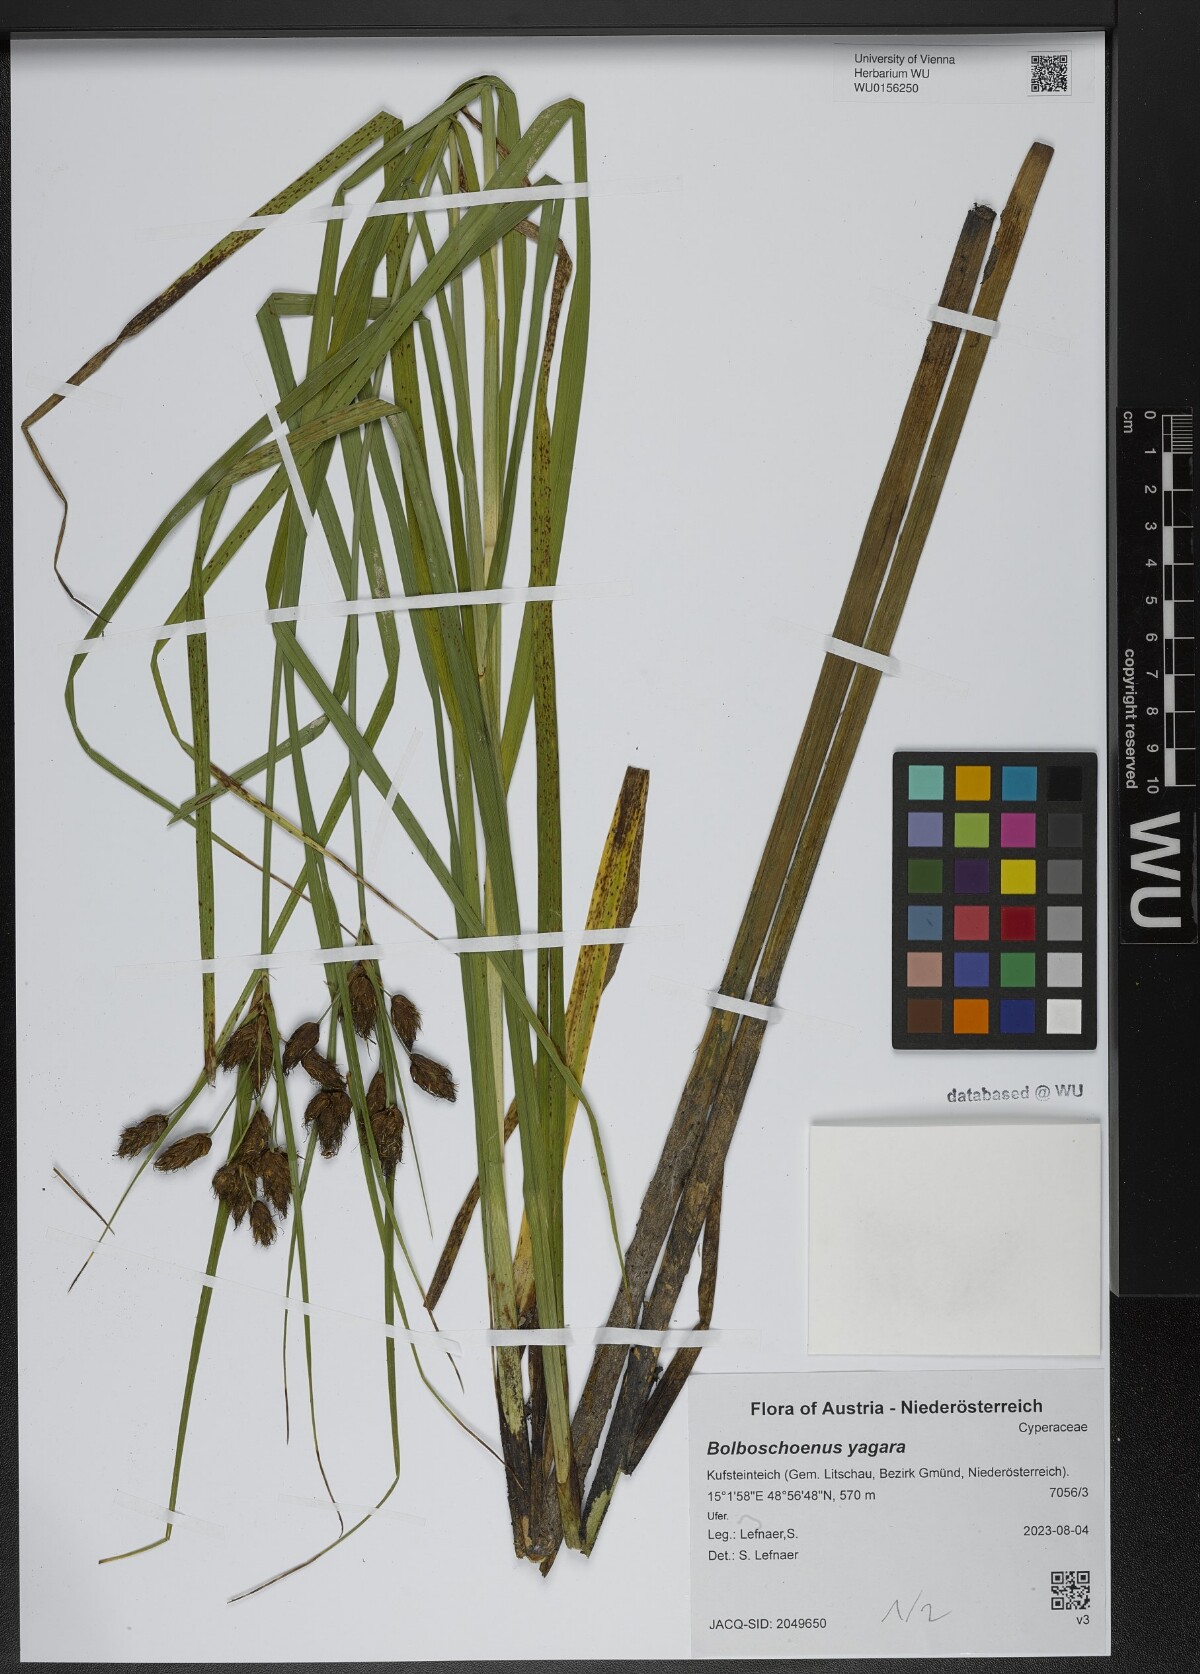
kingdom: Plantae
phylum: Tracheophyta
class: Liliopsida
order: Poales
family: Cyperaceae
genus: Bolboschoenus
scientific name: Bolboschoenus yagara
